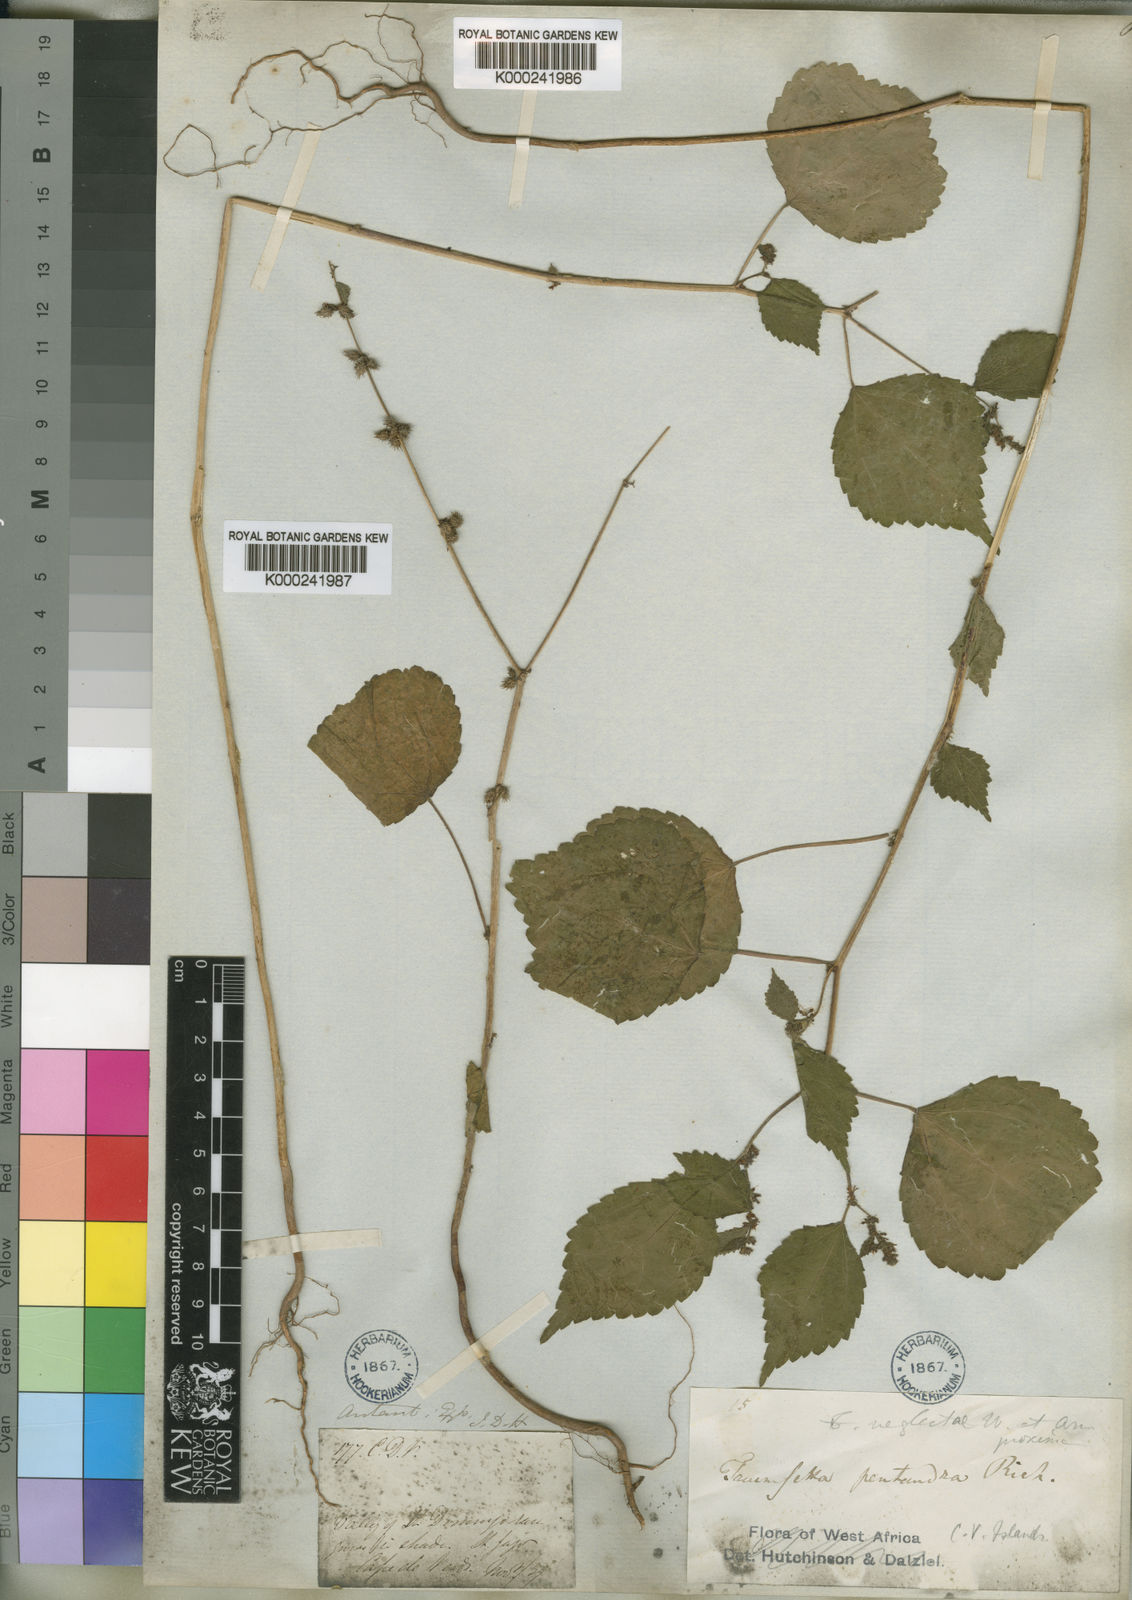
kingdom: Plantae
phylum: Tracheophyta
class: Magnoliopsida
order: Malvales
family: Malvaceae
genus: Triumfetta
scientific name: Triumfetta pentandra
